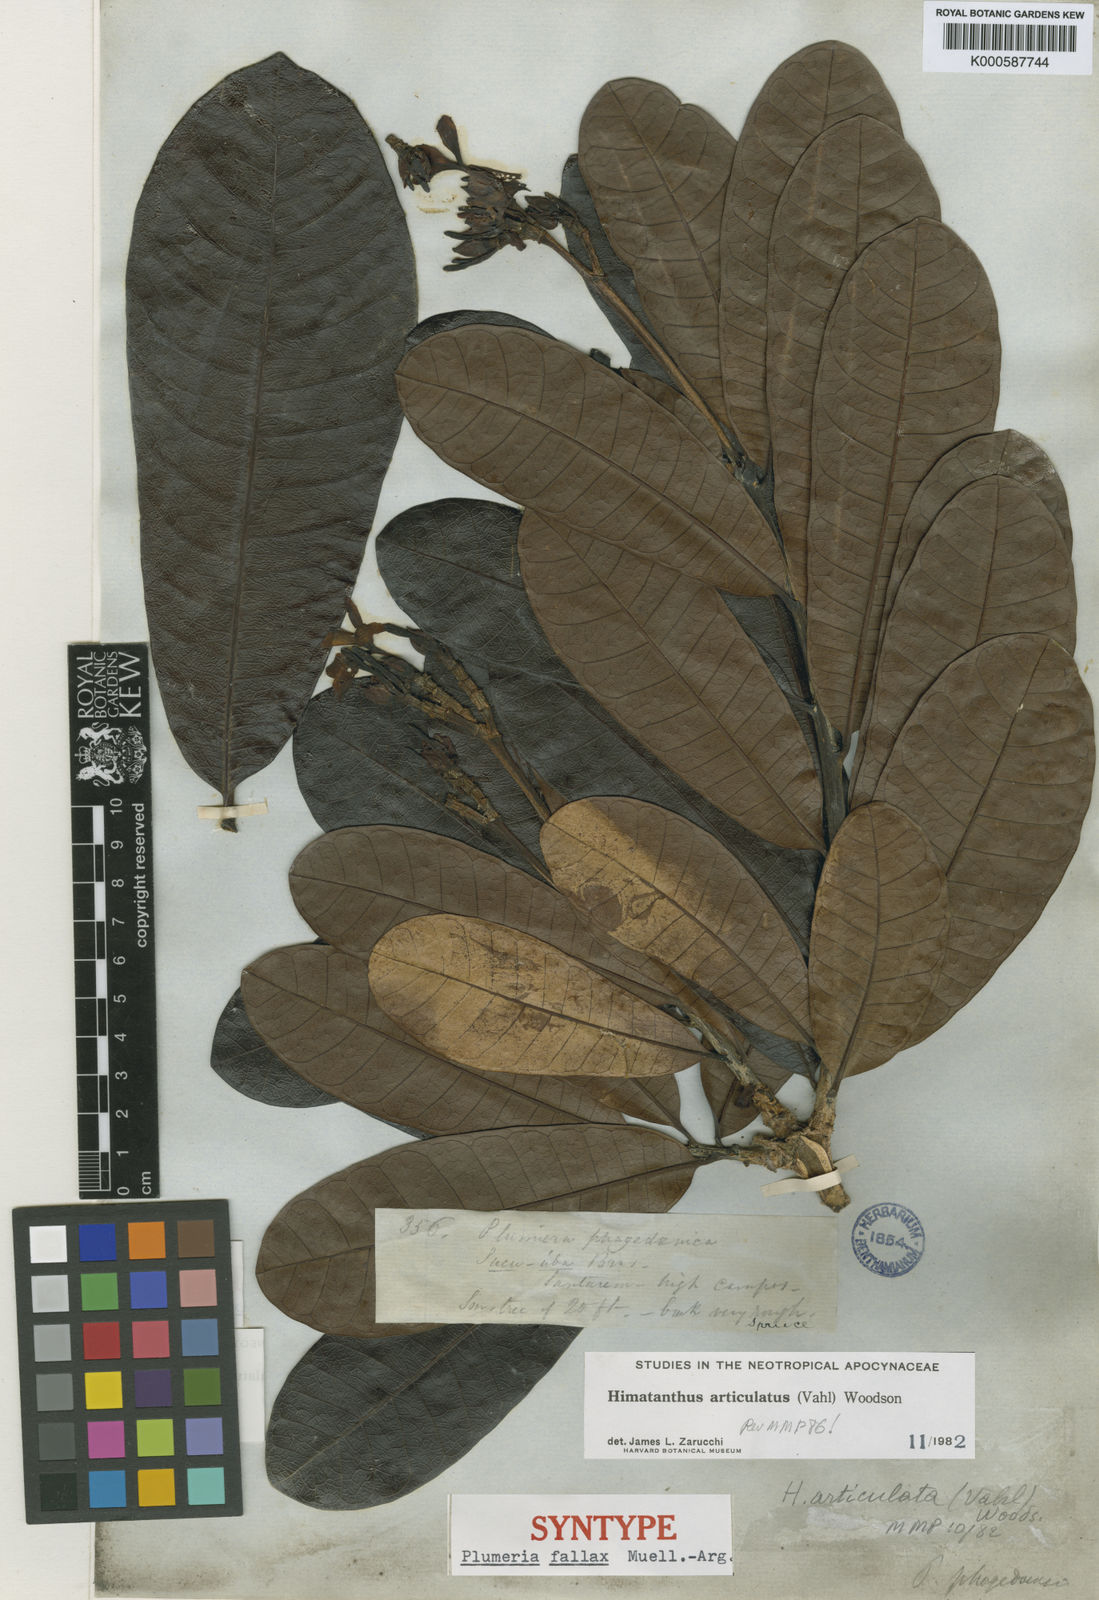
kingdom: Plantae
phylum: Tracheophyta
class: Magnoliopsida
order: Gentianales
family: Apocynaceae
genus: Himatanthus
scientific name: Himatanthus
